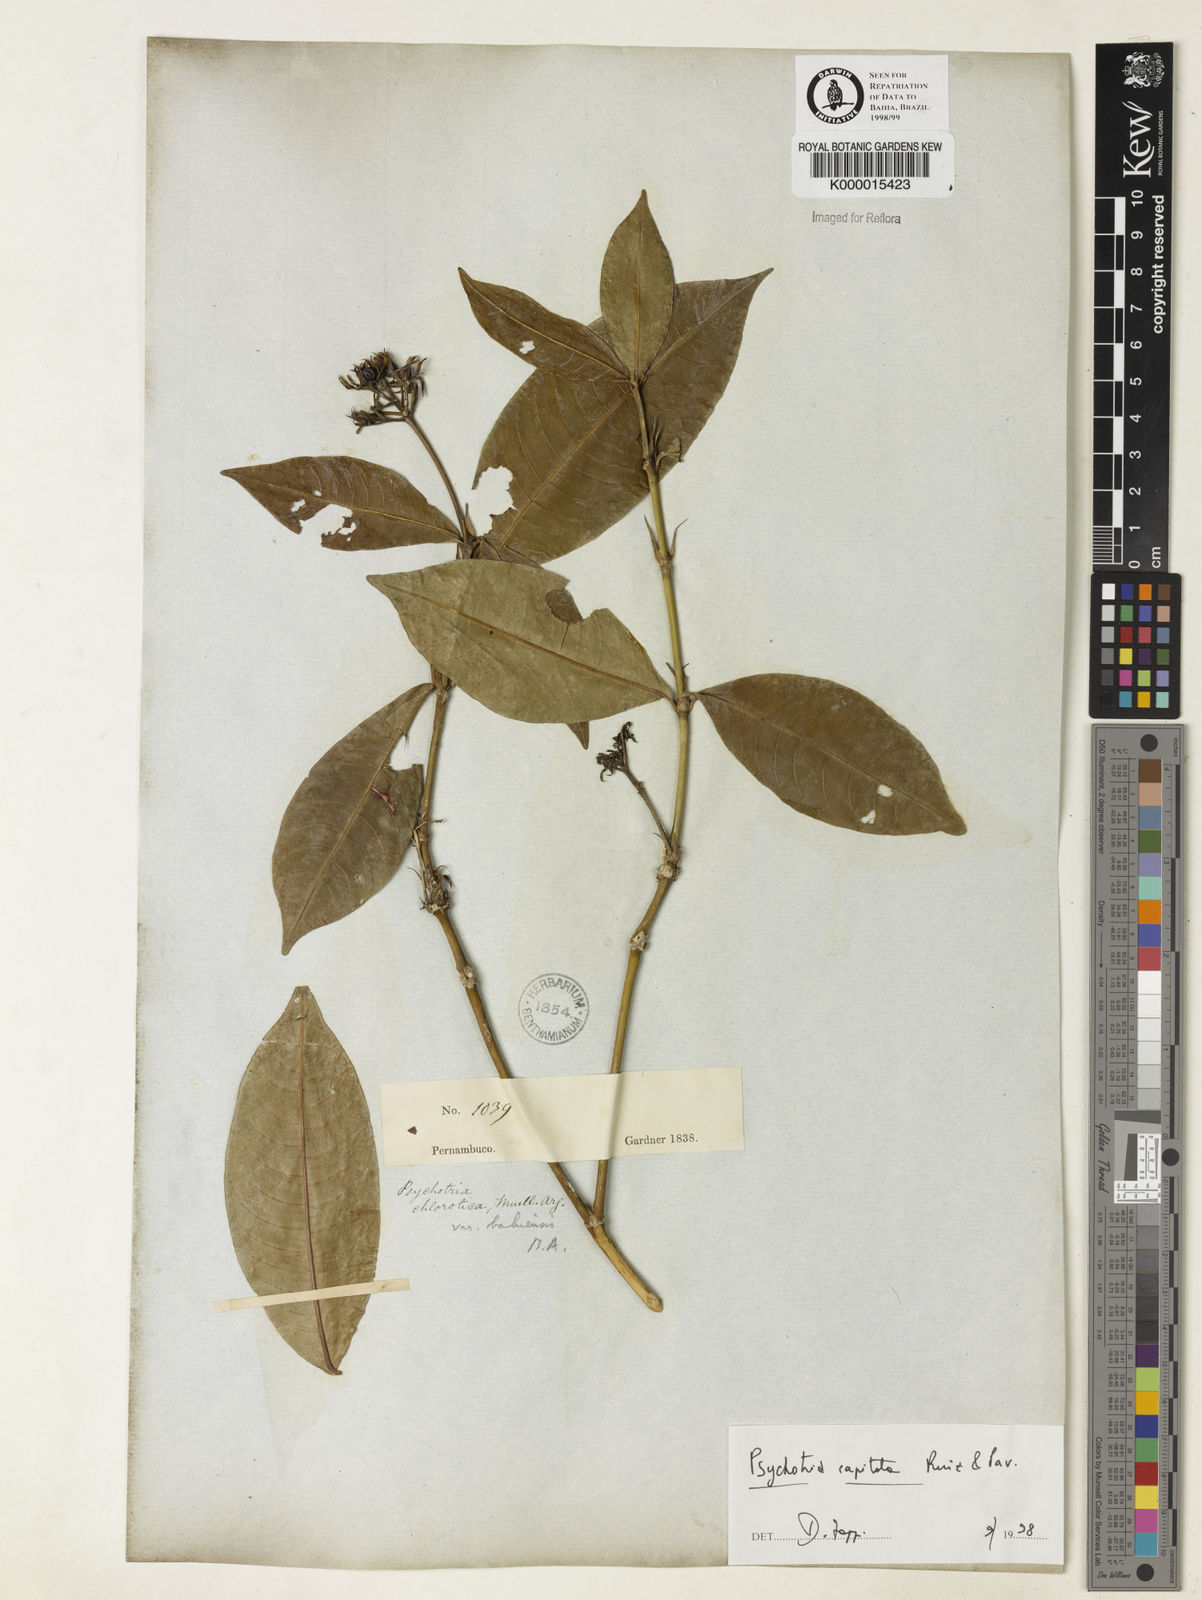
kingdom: Plantae
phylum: Tracheophyta
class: Magnoliopsida
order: Gentianales
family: Rubiaceae
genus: Psychotria
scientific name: Psychotria
